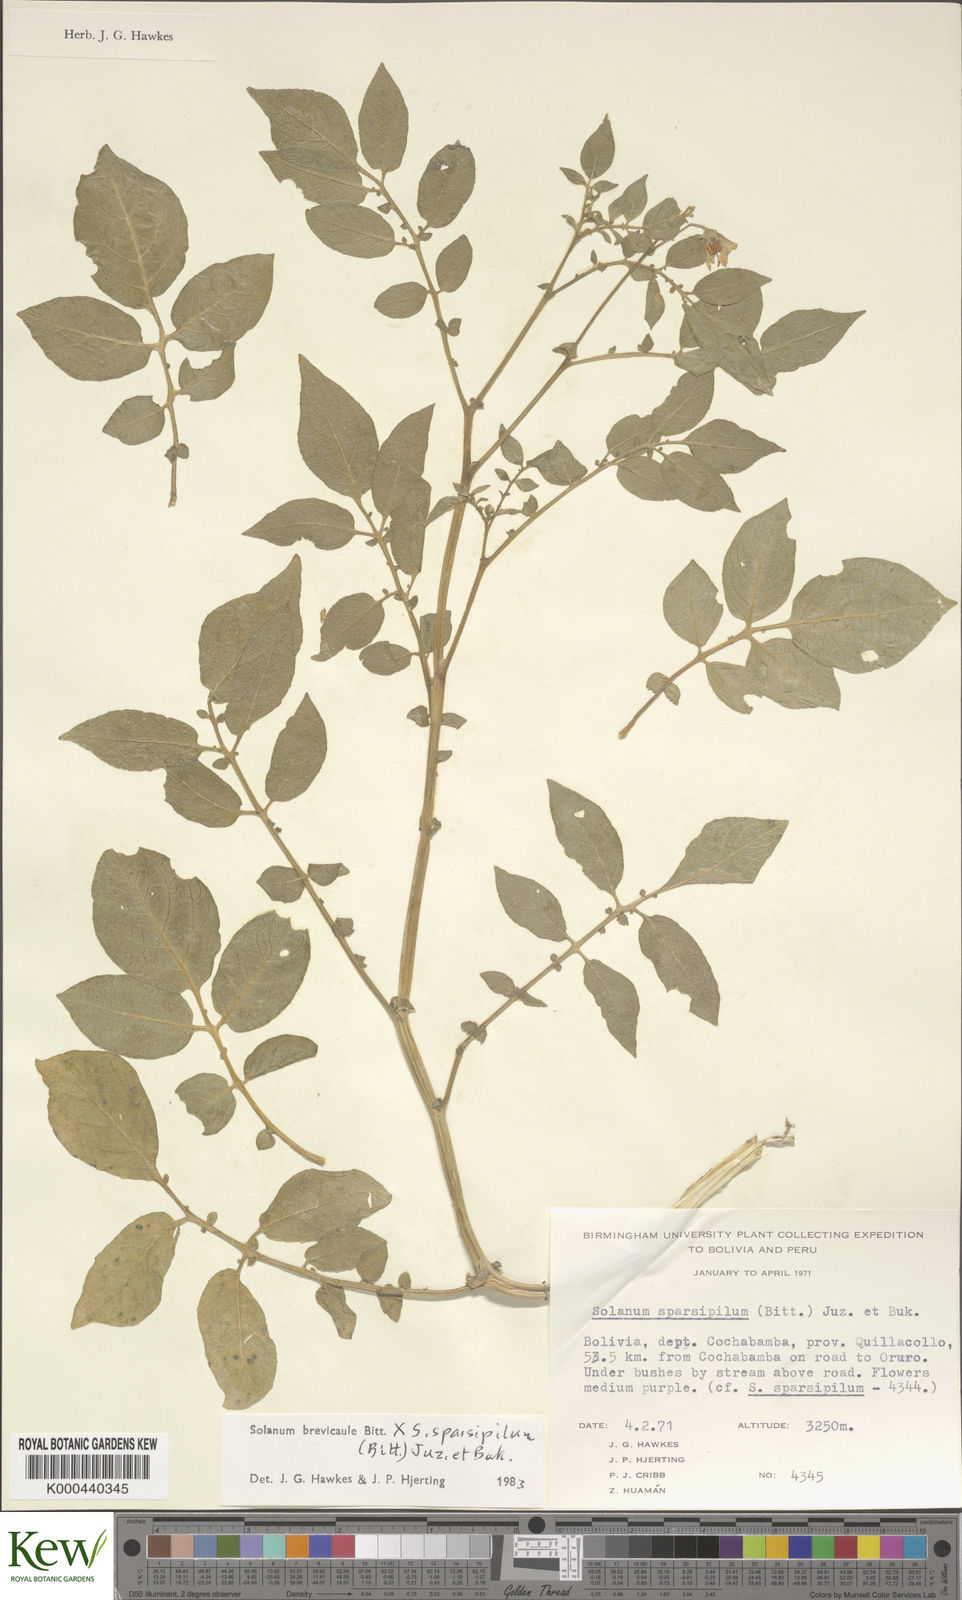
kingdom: Plantae
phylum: Tracheophyta
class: Magnoliopsida
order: Solanales
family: Solanaceae
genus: Solanum
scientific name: Solanum brevicaule
